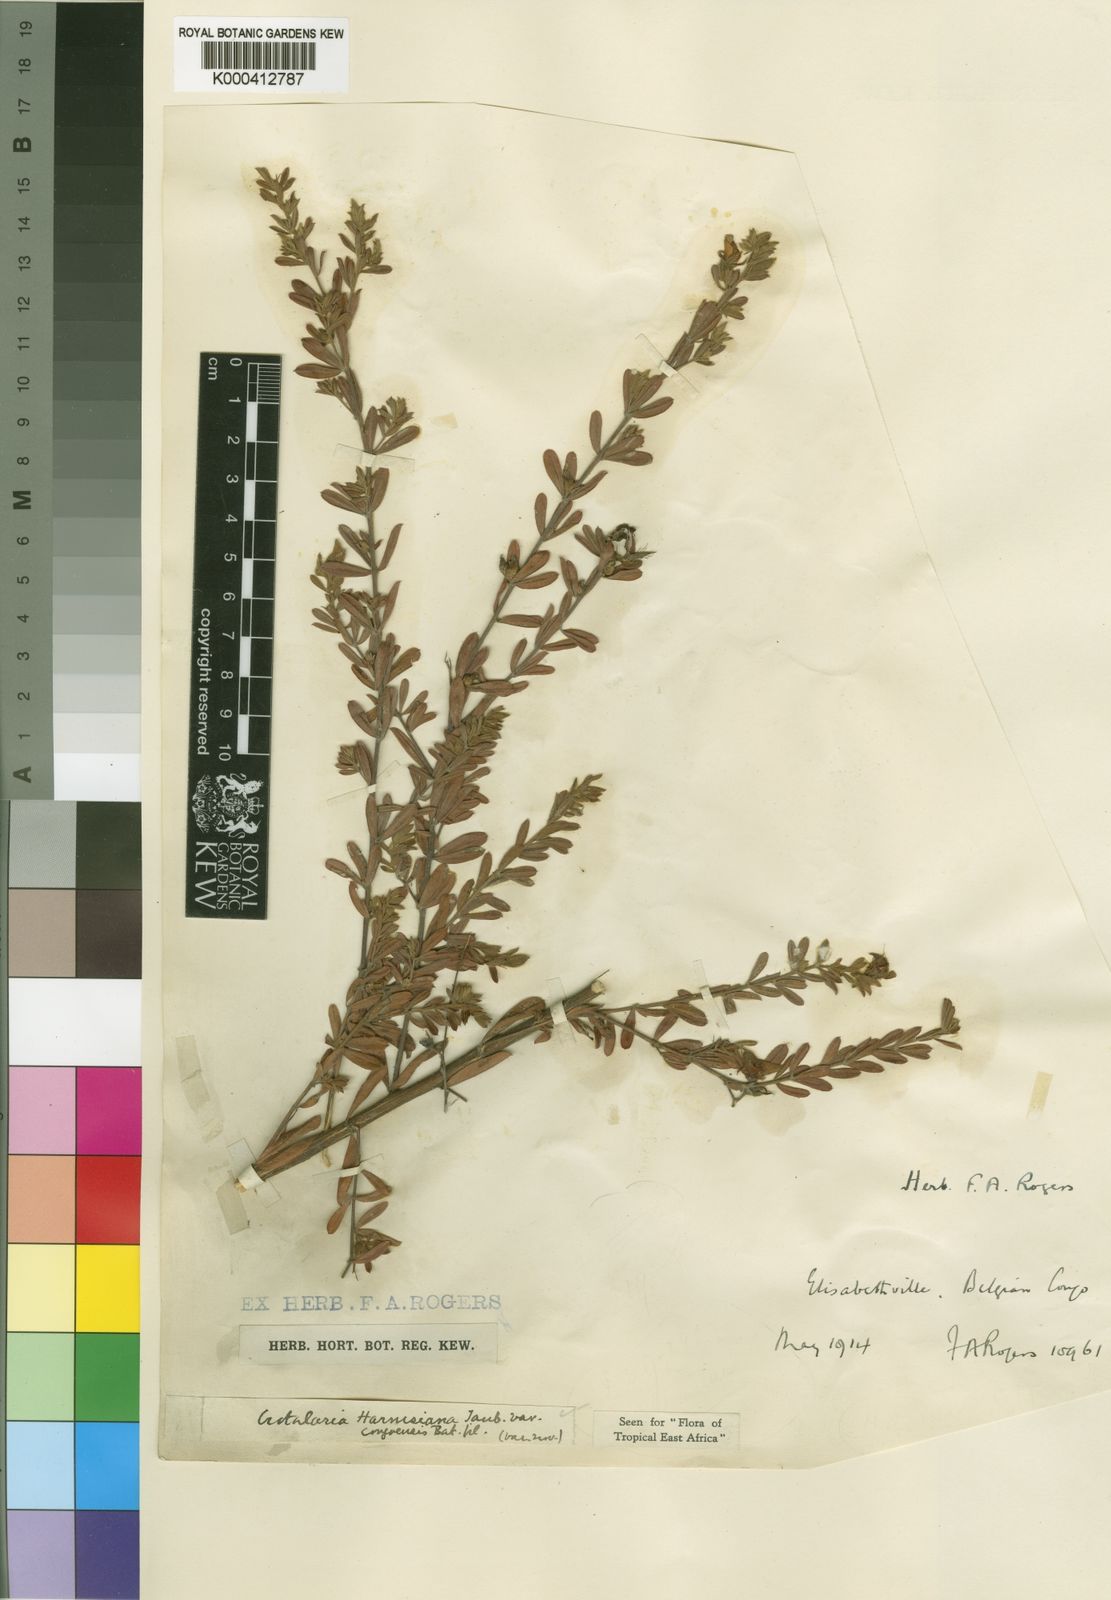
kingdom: Plantae
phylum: Tracheophyta
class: Magnoliopsida
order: Fabales
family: Fabaceae
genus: Crotalaria
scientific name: Crotalaria caudata
